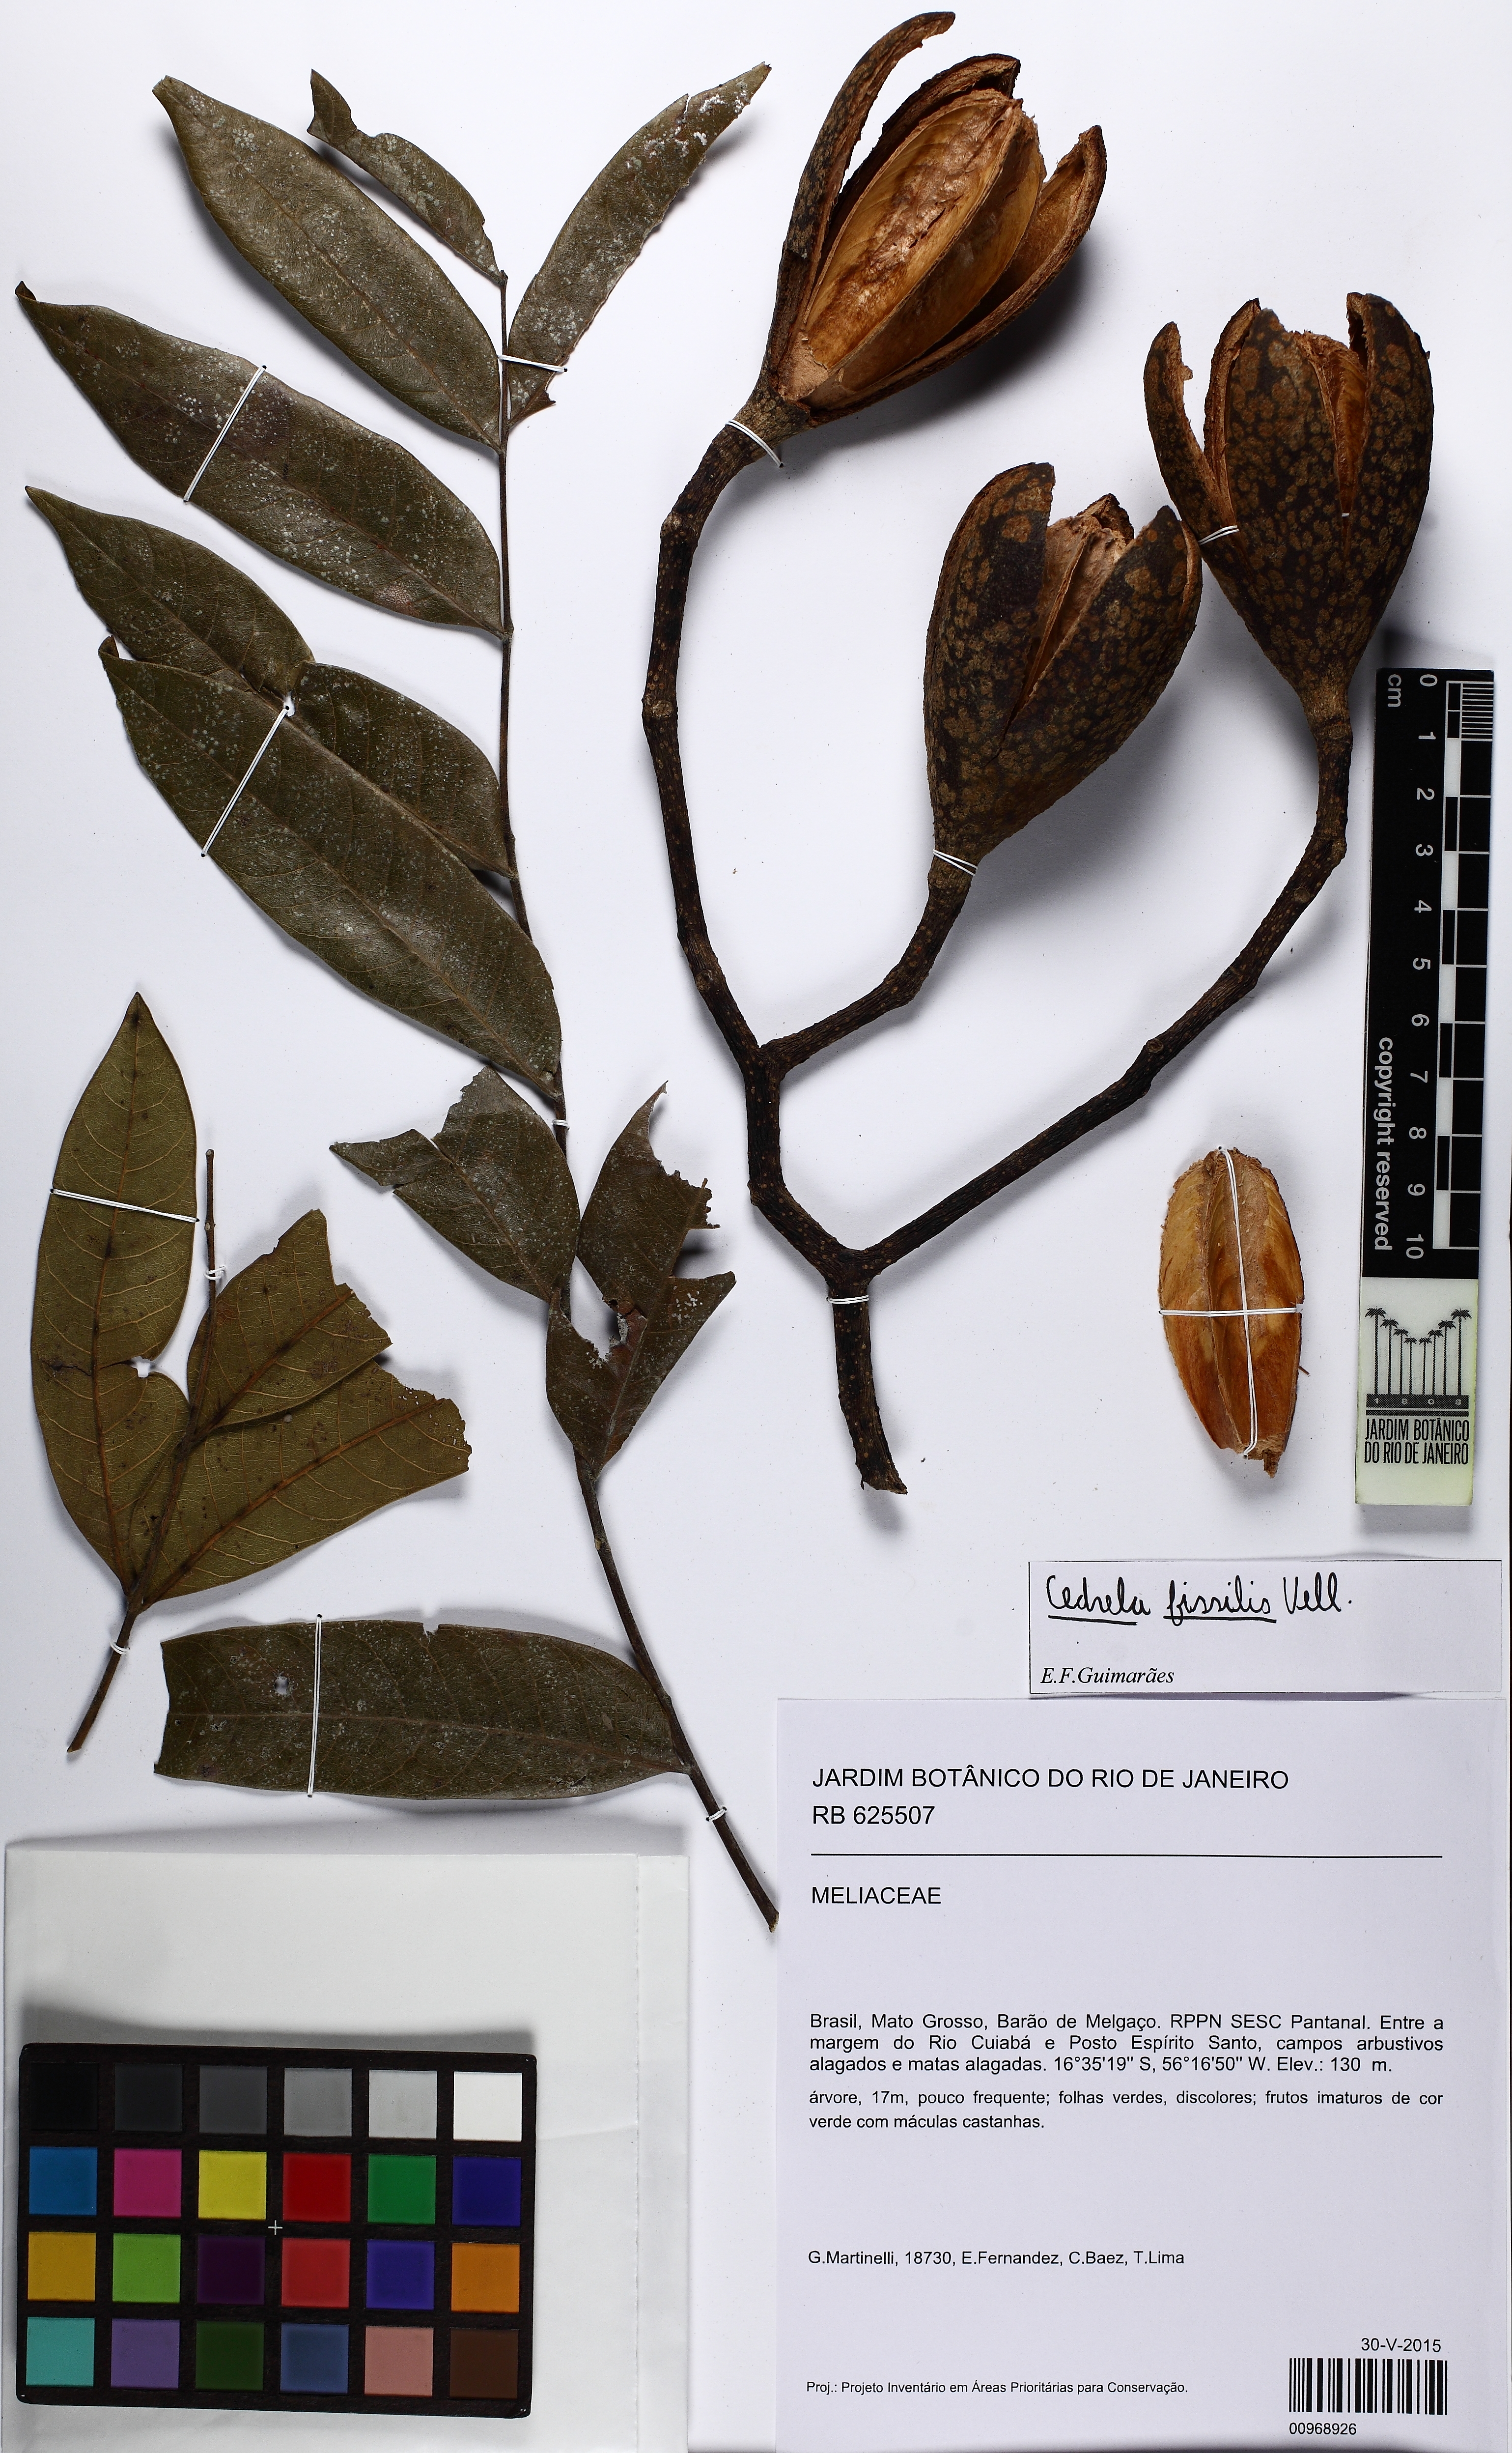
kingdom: Plantae
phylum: Tracheophyta
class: Magnoliopsida
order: Sapindales
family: Meliaceae
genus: Cedrela
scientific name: Cedrela fissilis
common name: Argentine cedar
